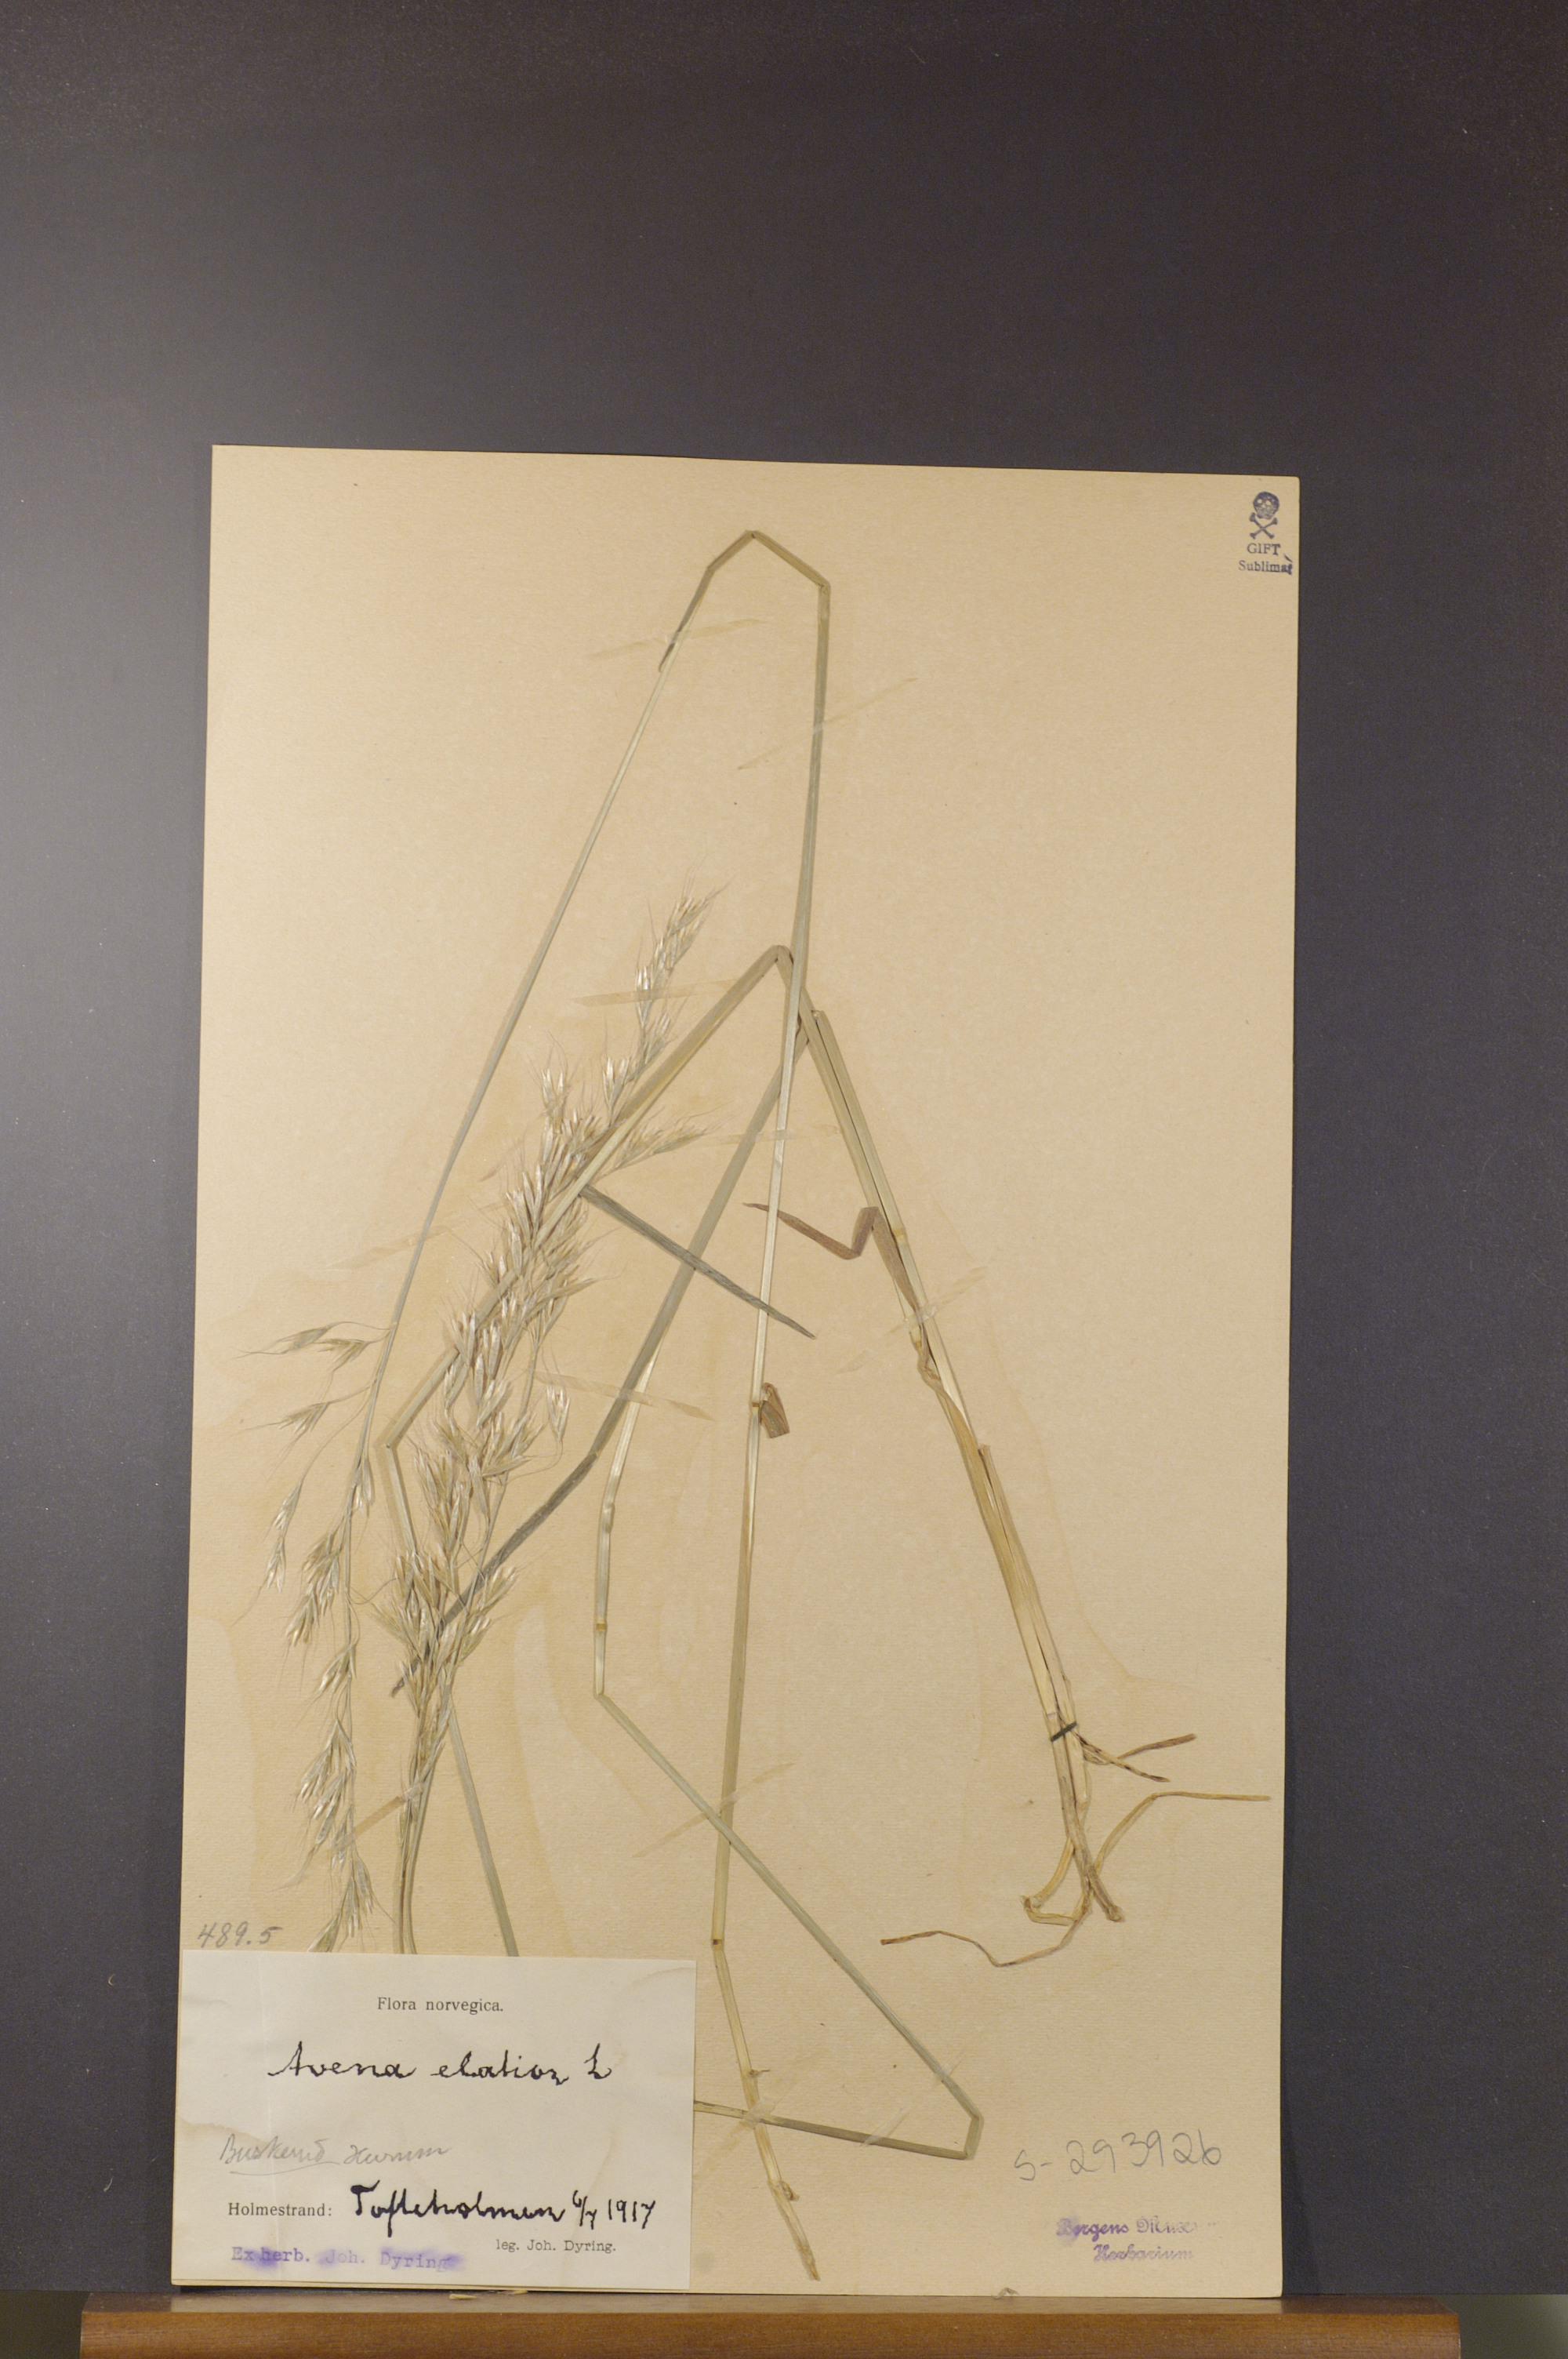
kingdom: Plantae
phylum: Tracheophyta
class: Liliopsida
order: Poales
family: Poaceae
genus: Arrhenatherum
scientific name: Arrhenatherum elatius
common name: Tall oatgrass
